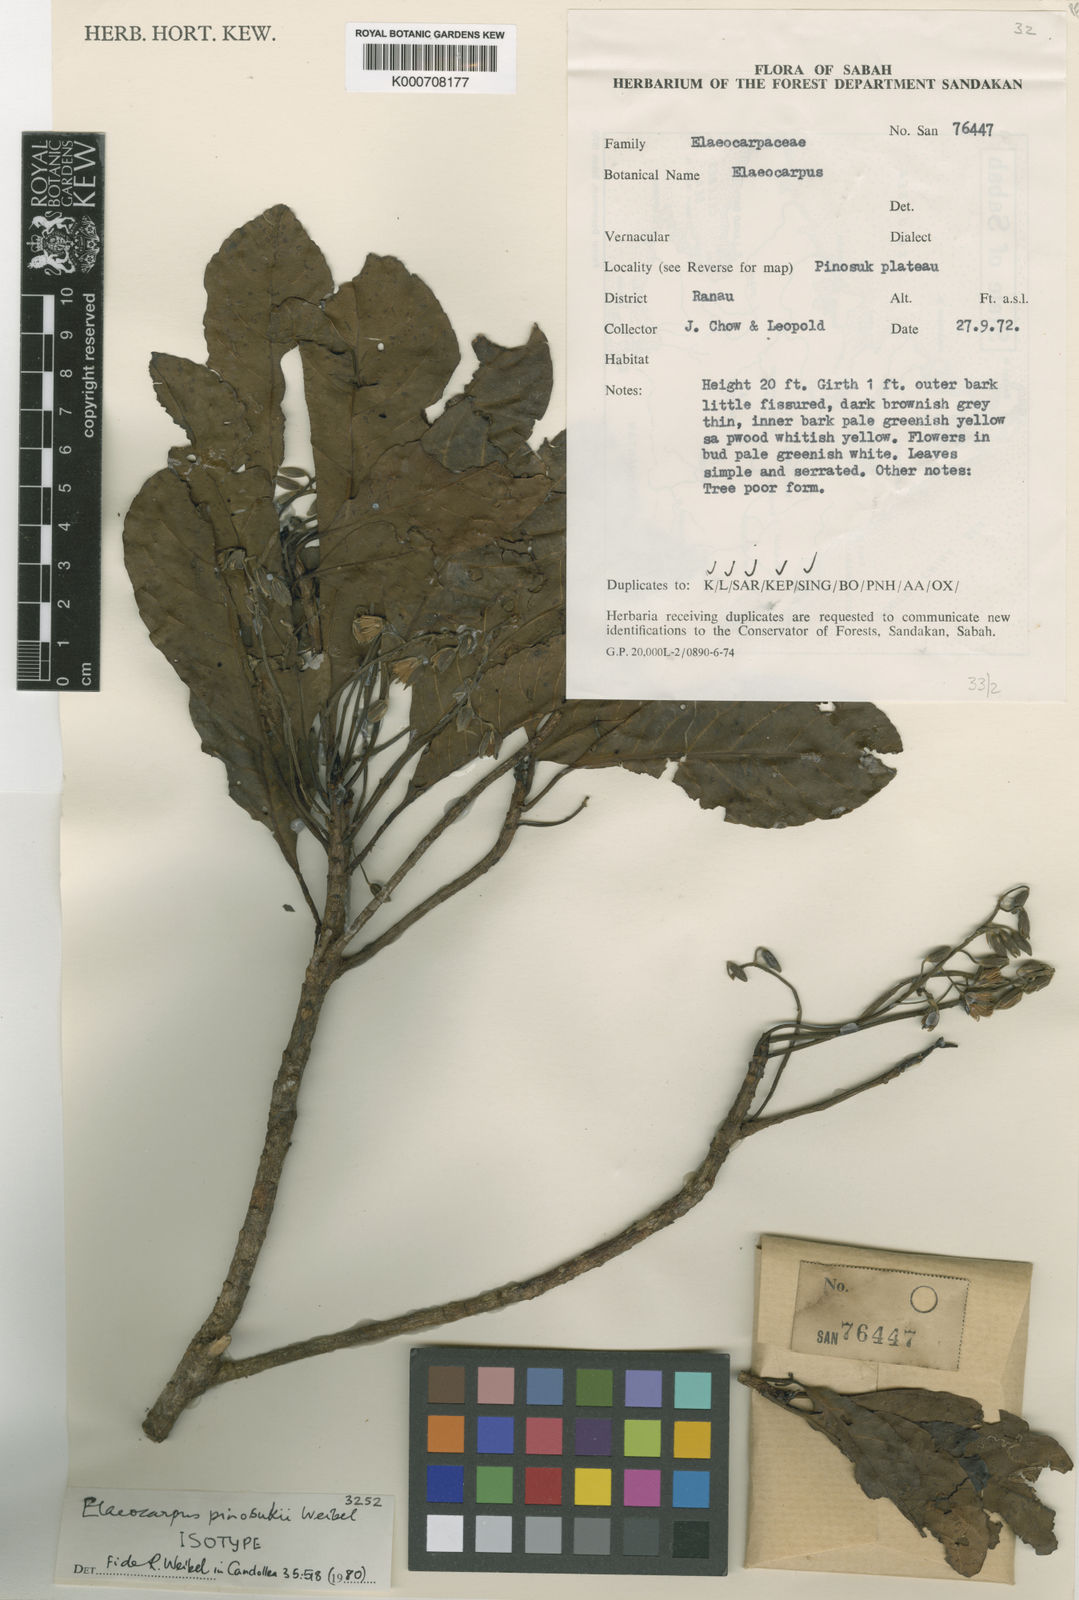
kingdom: Plantae
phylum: Tracheophyta
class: Magnoliopsida
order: Oxalidales
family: Elaeocarpaceae
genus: Elaeocarpus
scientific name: Elaeocarpus pinosukii
